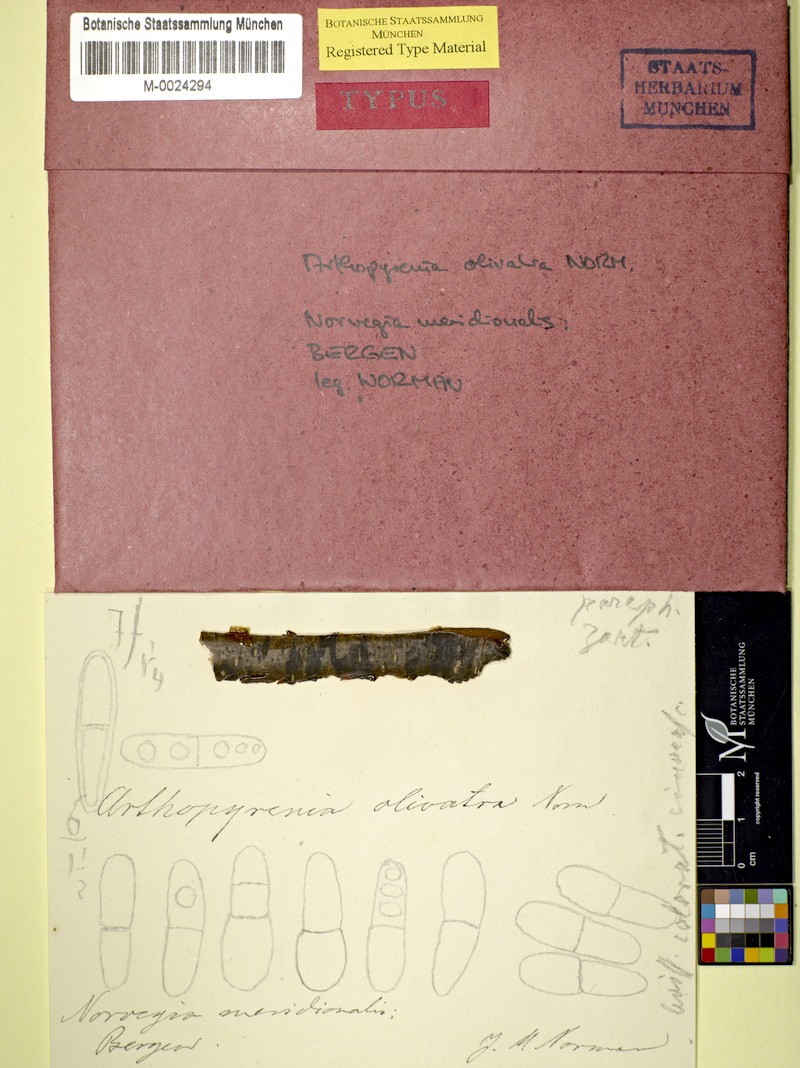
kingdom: Fungi
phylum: Ascomycota
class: Dothideomycetes
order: Pleosporales
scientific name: Pleosporales
